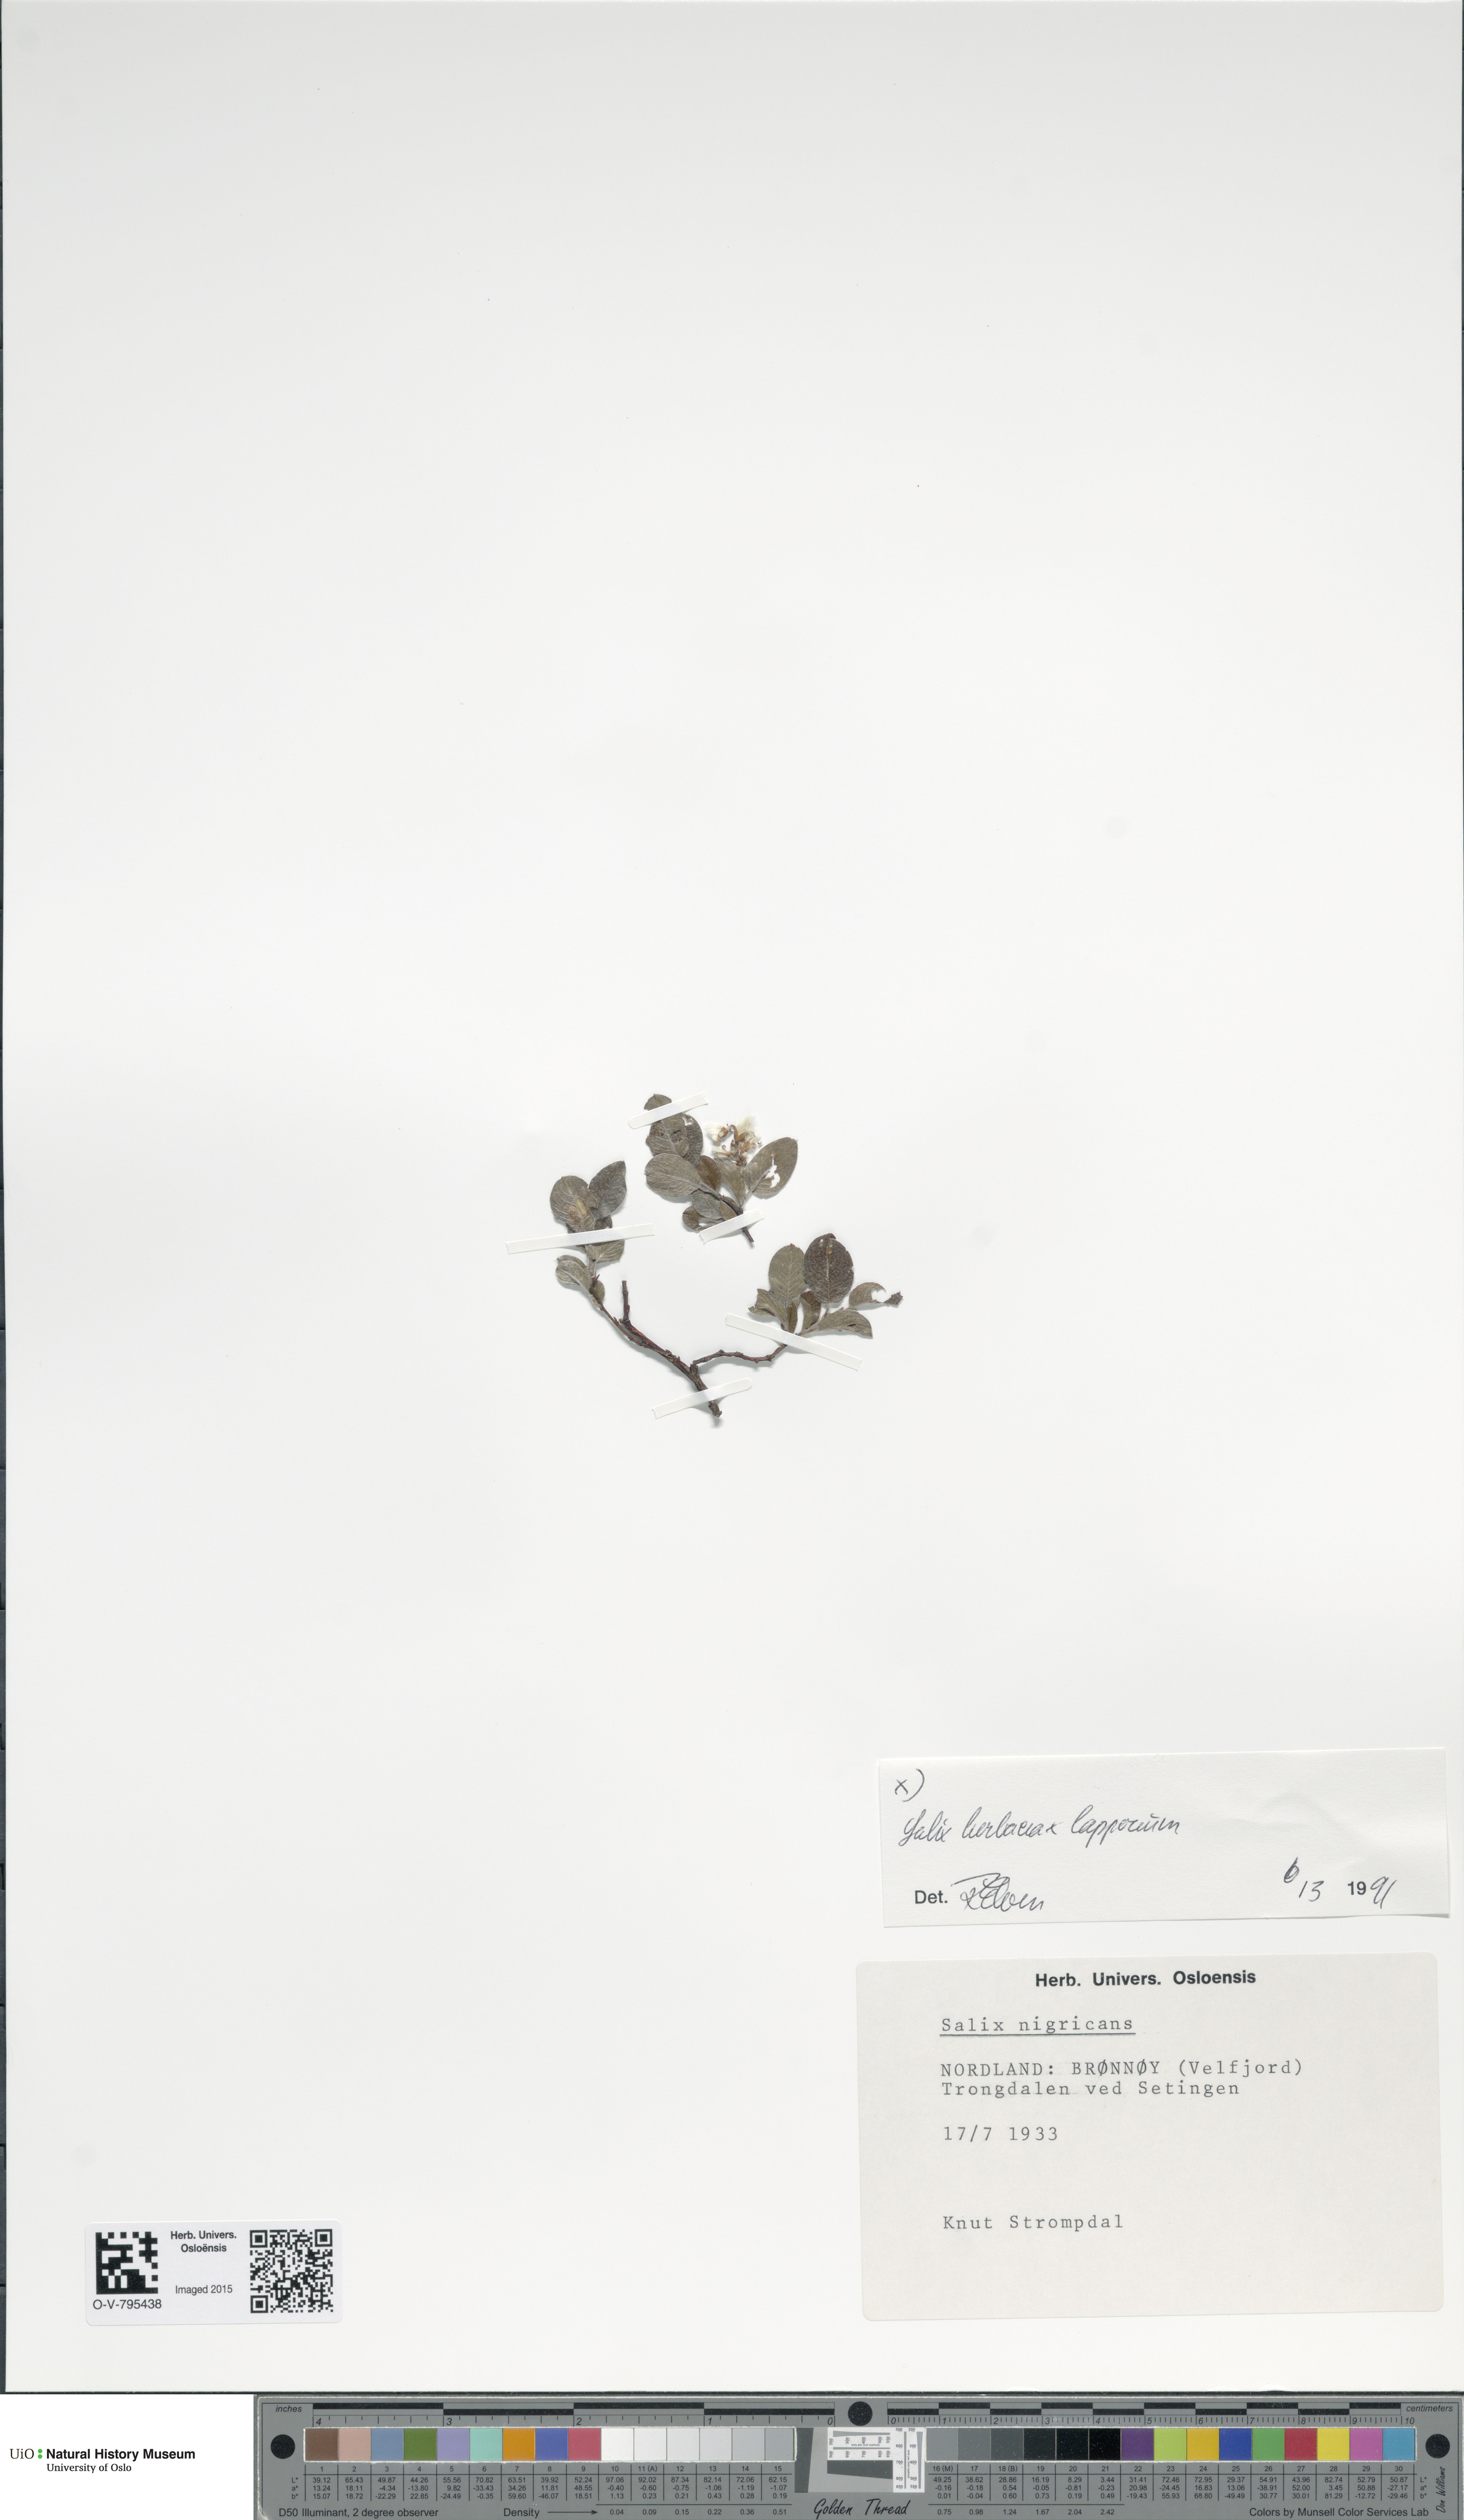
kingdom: Plantae
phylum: Tracheophyta
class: Magnoliopsida
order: Malpighiales
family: Salicaceae
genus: Salix
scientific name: Salix
